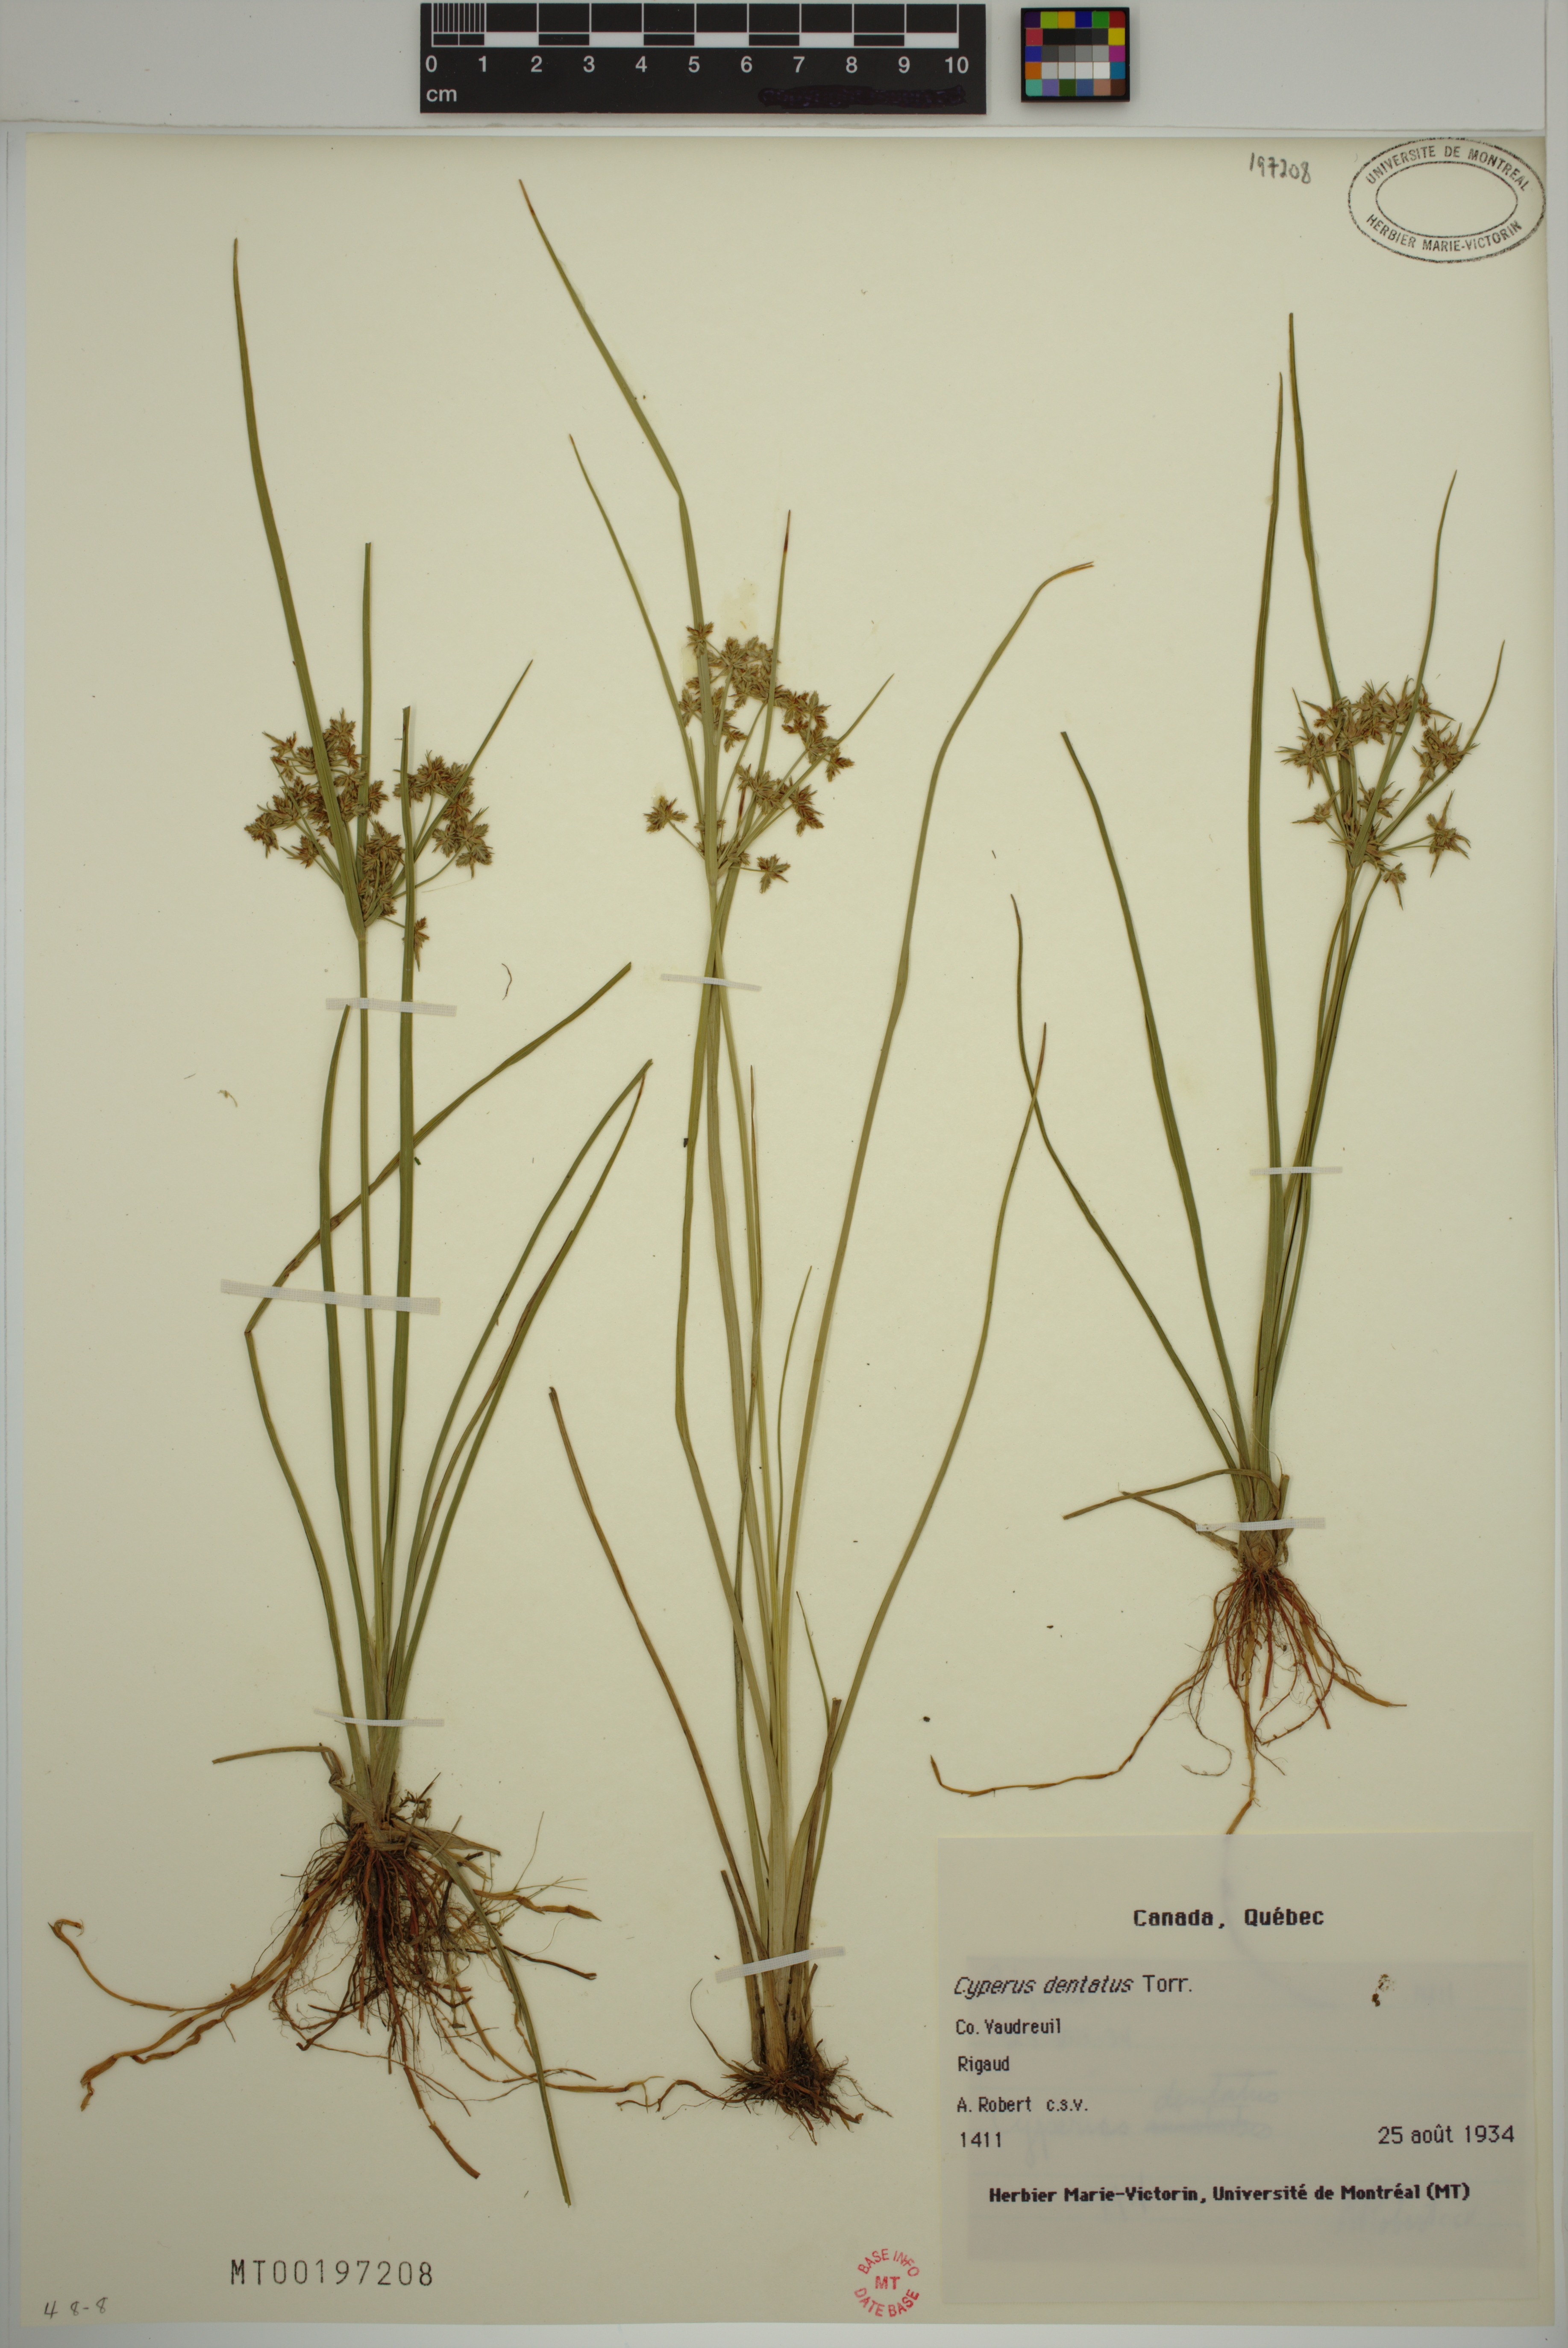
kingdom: Plantae
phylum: Tracheophyta
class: Liliopsida
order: Poales
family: Cyperaceae
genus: Cyperus
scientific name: Cyperus dentatus
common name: Dentate umbrella sedge
